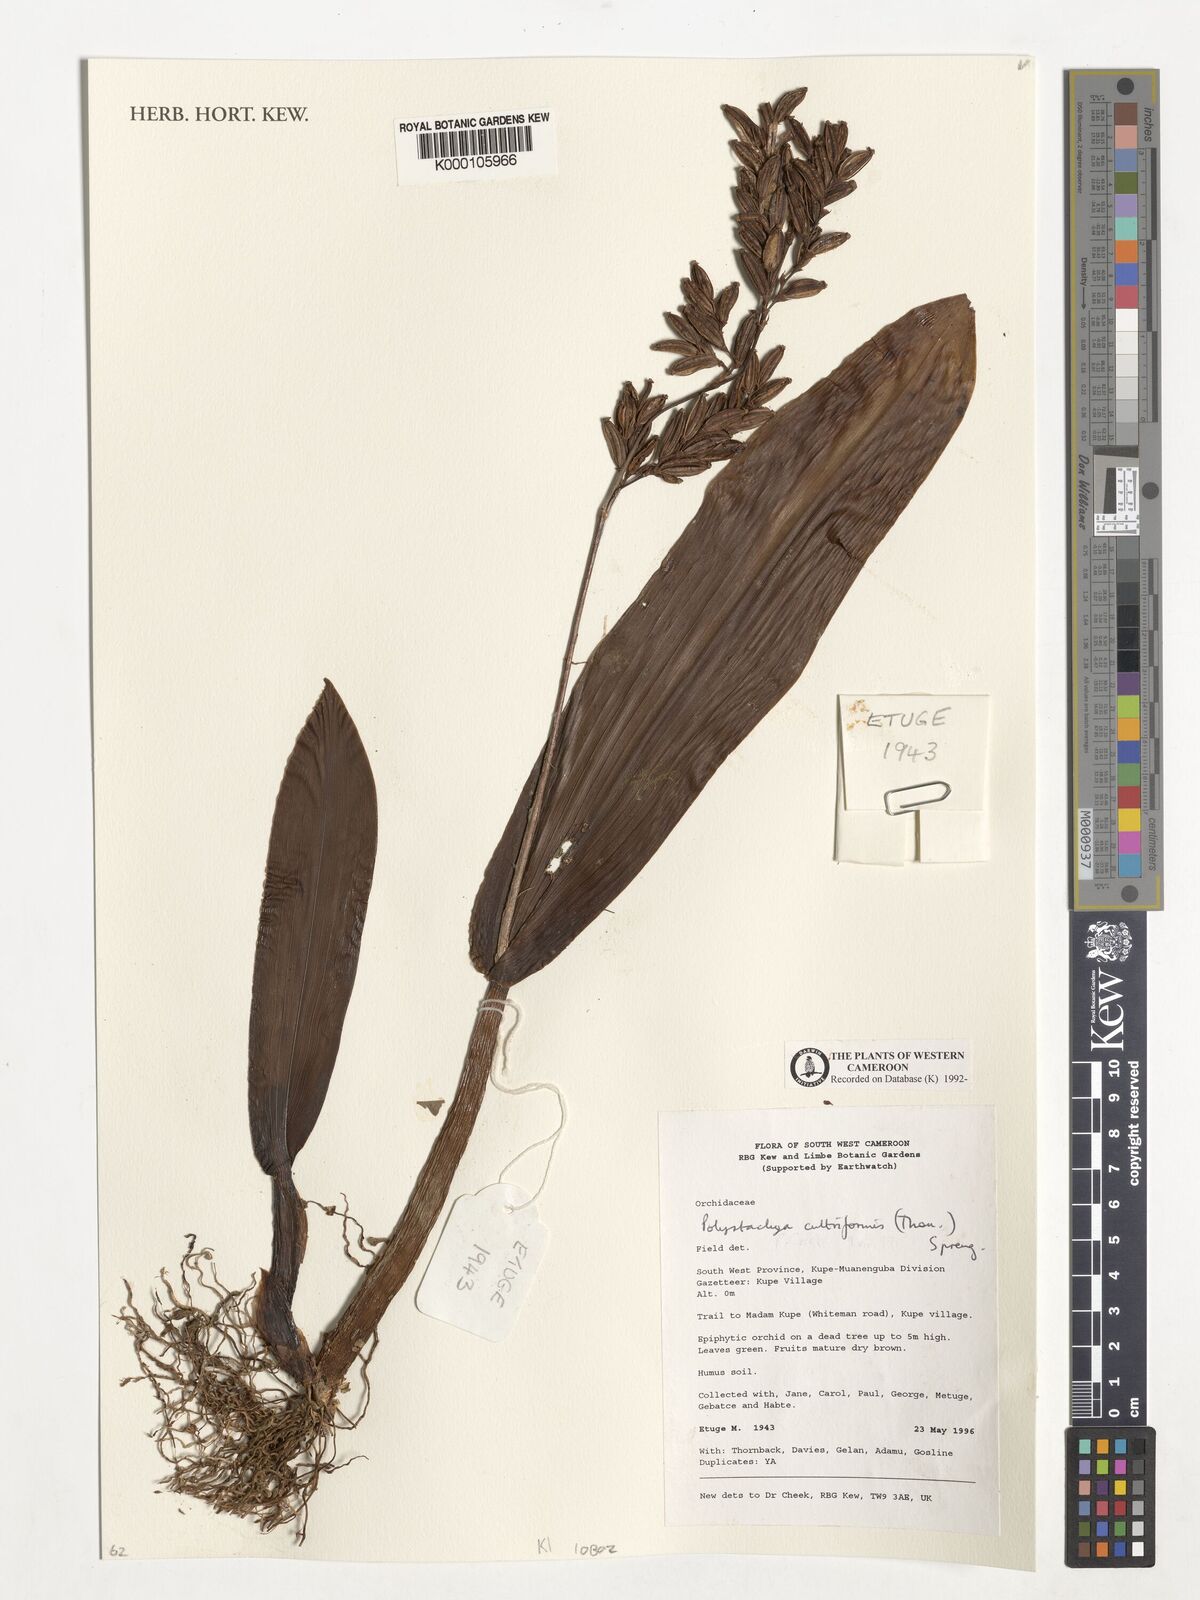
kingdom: Plantae
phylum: Tracheophyta
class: Liliopsida
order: Asparagales
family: Orchidaceae
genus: Polystachya
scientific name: Polystachya cultriformis
